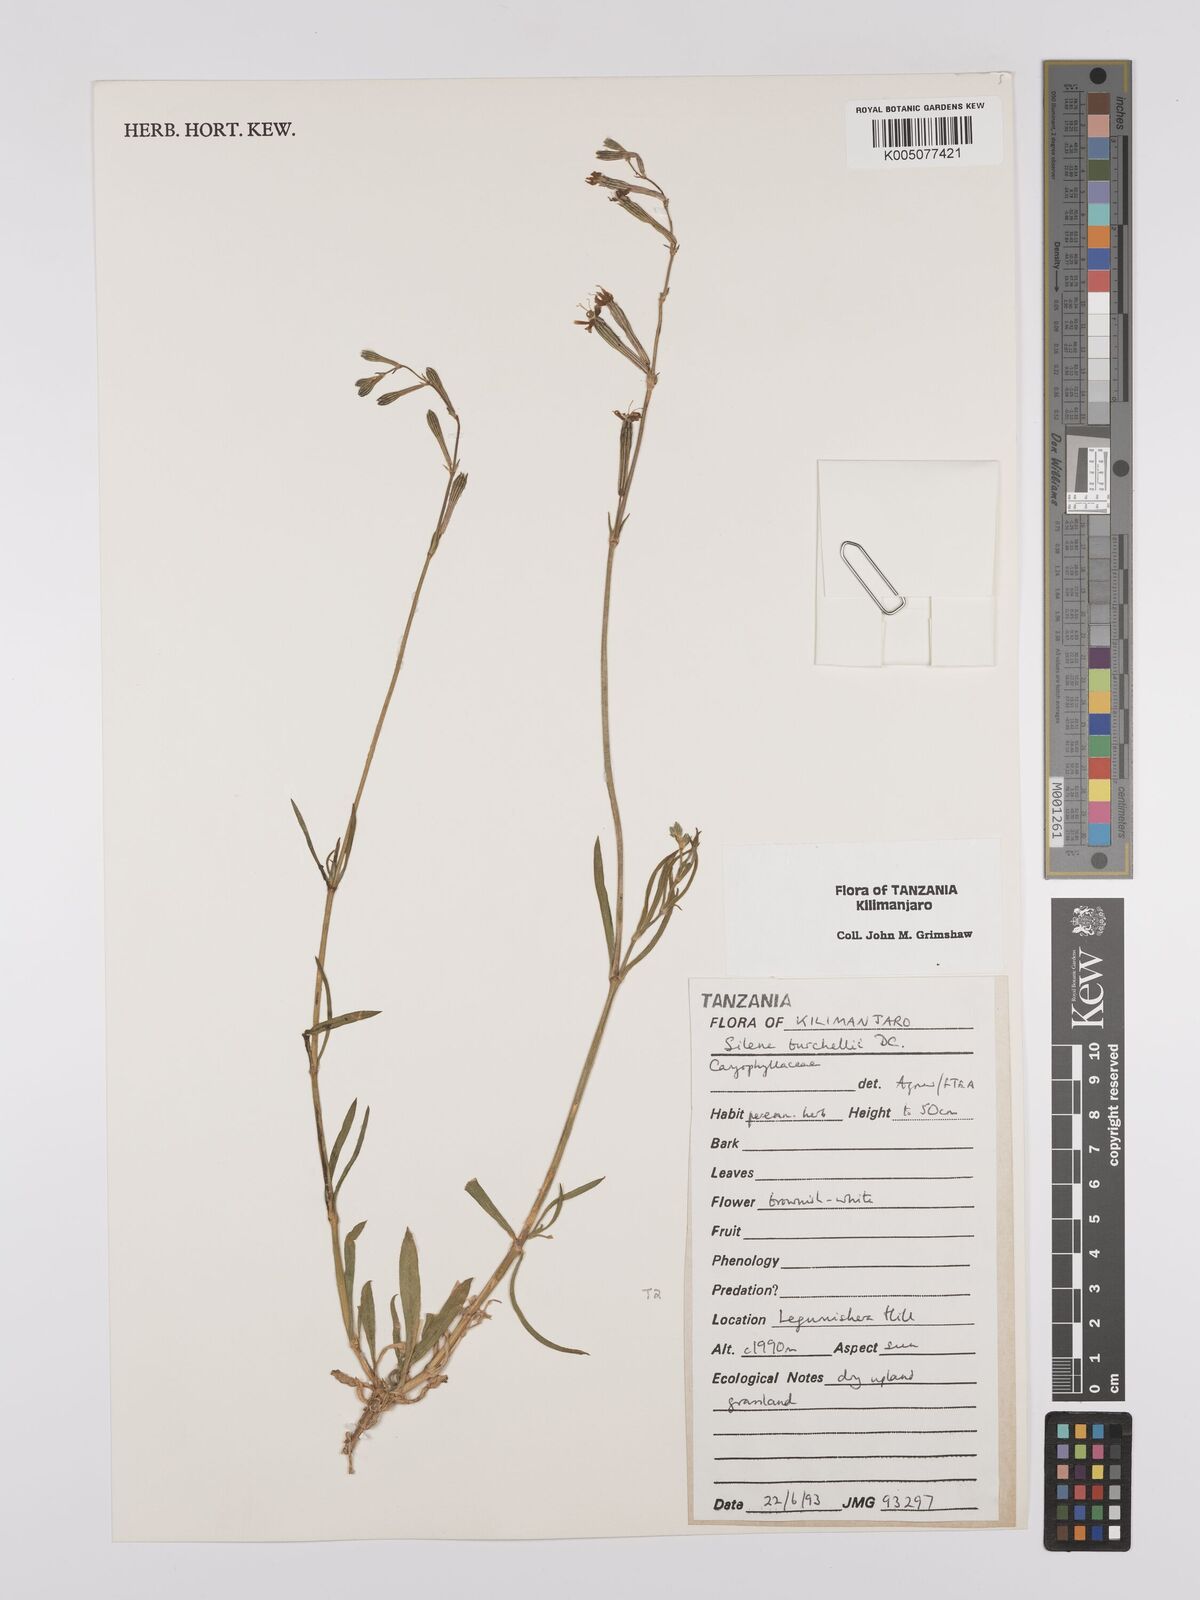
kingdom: Plantae
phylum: Tracheophyta
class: Magnoliopsida
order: Caryophyllales
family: Caryophyllaceae
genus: Silene
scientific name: Silene burchellii
